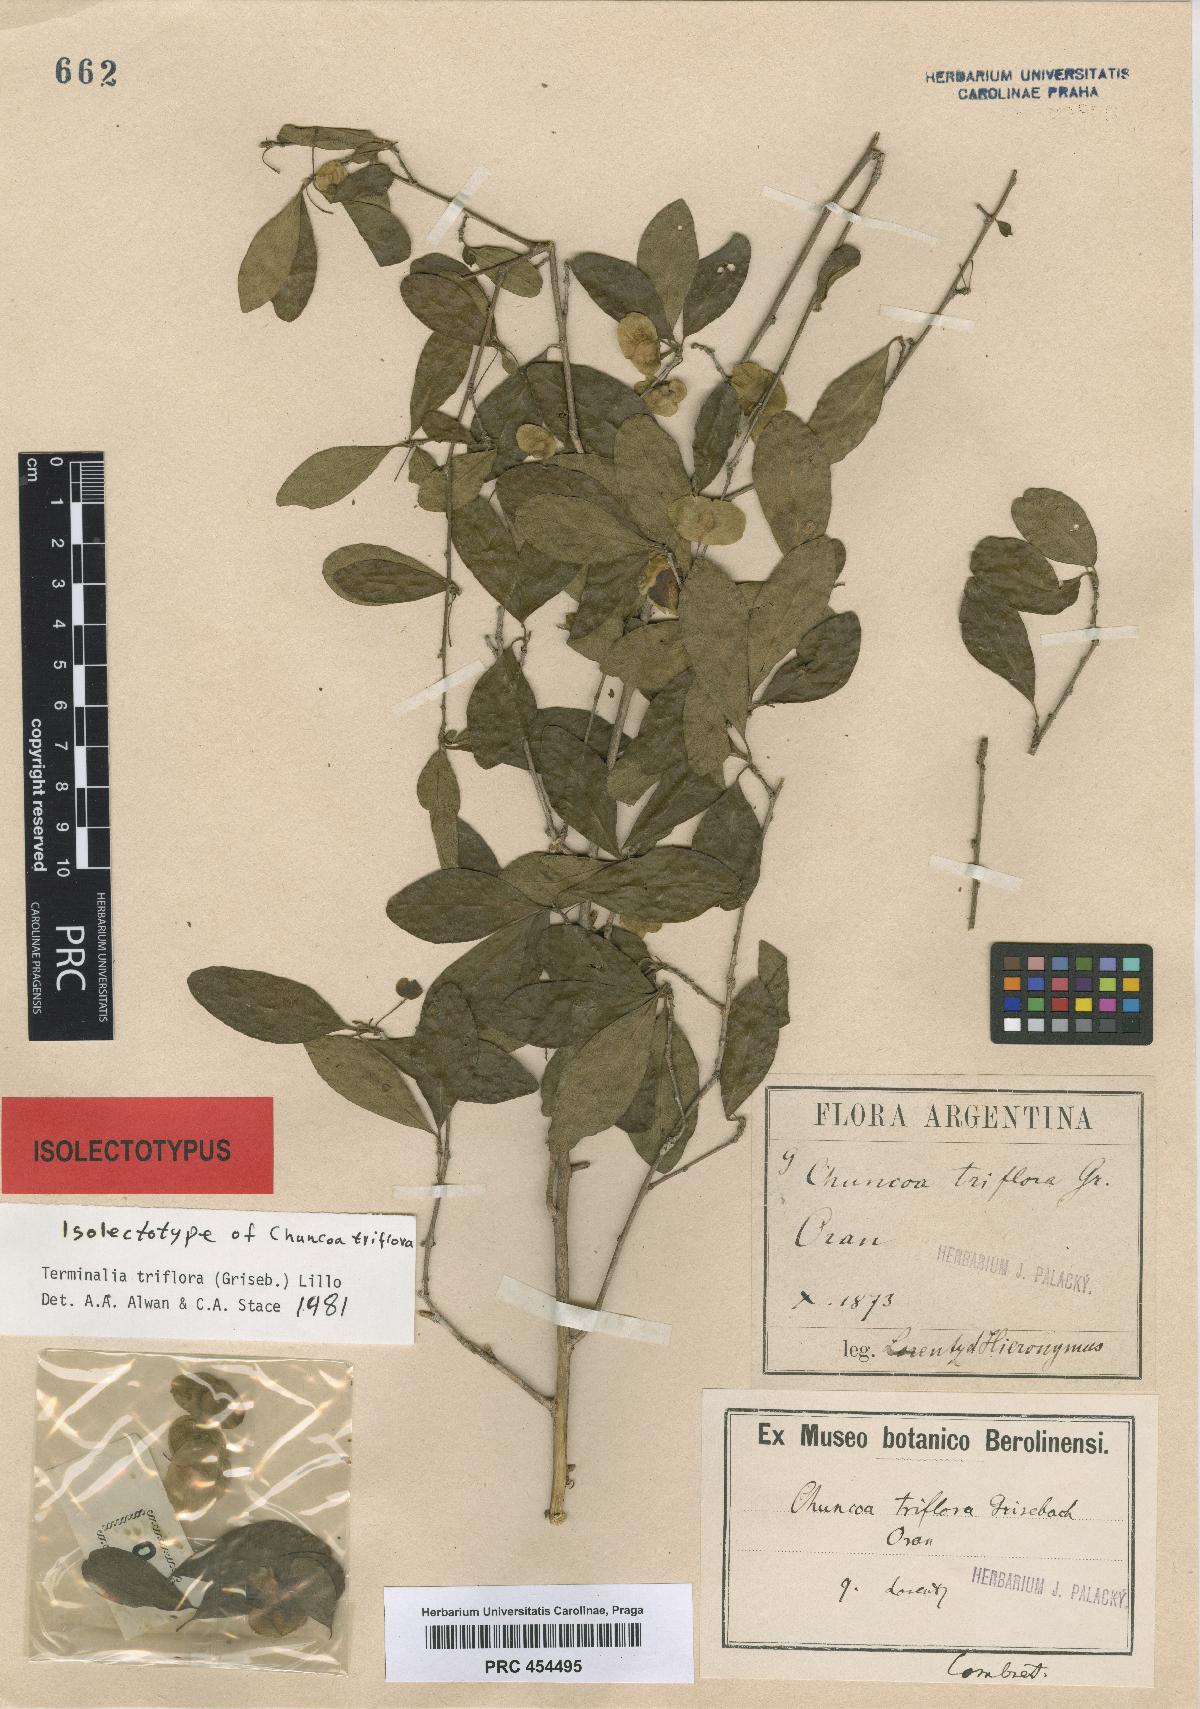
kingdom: Plantae
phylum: Tracheophyta
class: Magnoliopsida
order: Myrtales
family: Combretaceae
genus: Terminalia
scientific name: Terminalia triflora
